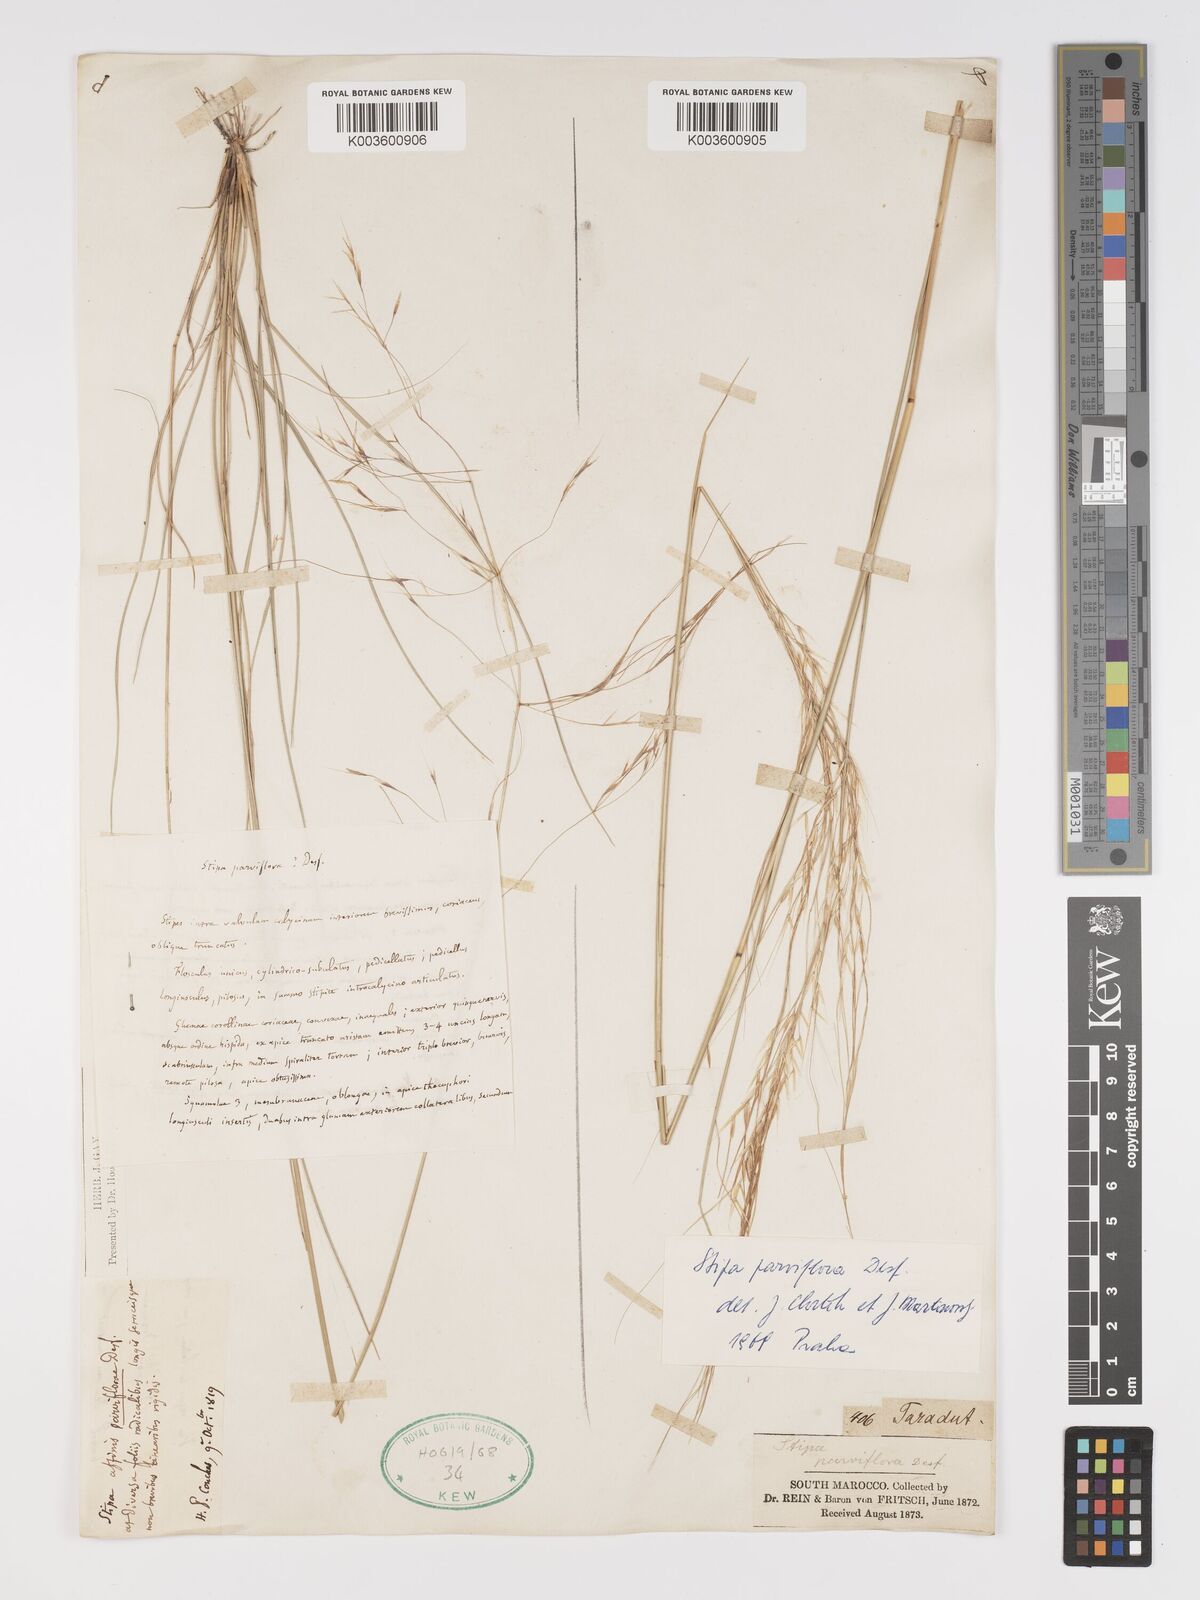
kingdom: Plantae
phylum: Tracheophyta
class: Liliopsida
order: Poales
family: Poaceae
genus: Achnatherum
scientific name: Achnatherum parviflorum
